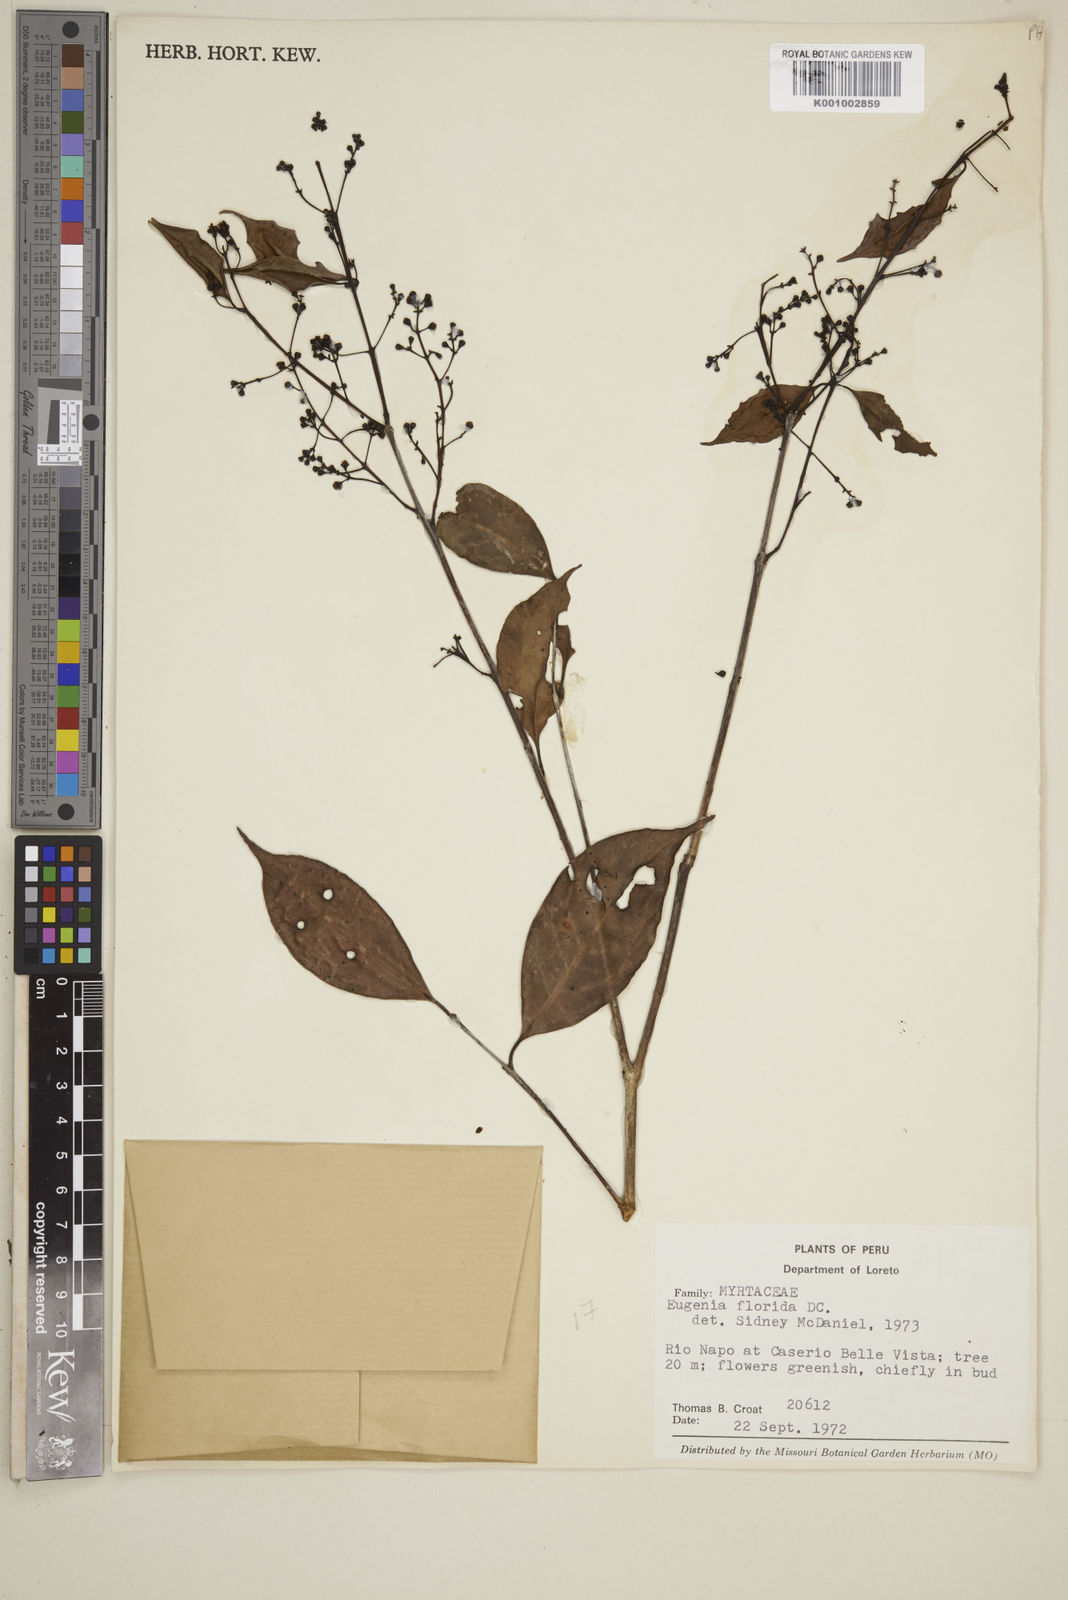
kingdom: Plantae
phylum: Tracheophyta
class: Magnoliopsida
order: Myrtales
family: Myrtaceae
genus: Eugenia
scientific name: Eugenia florida
